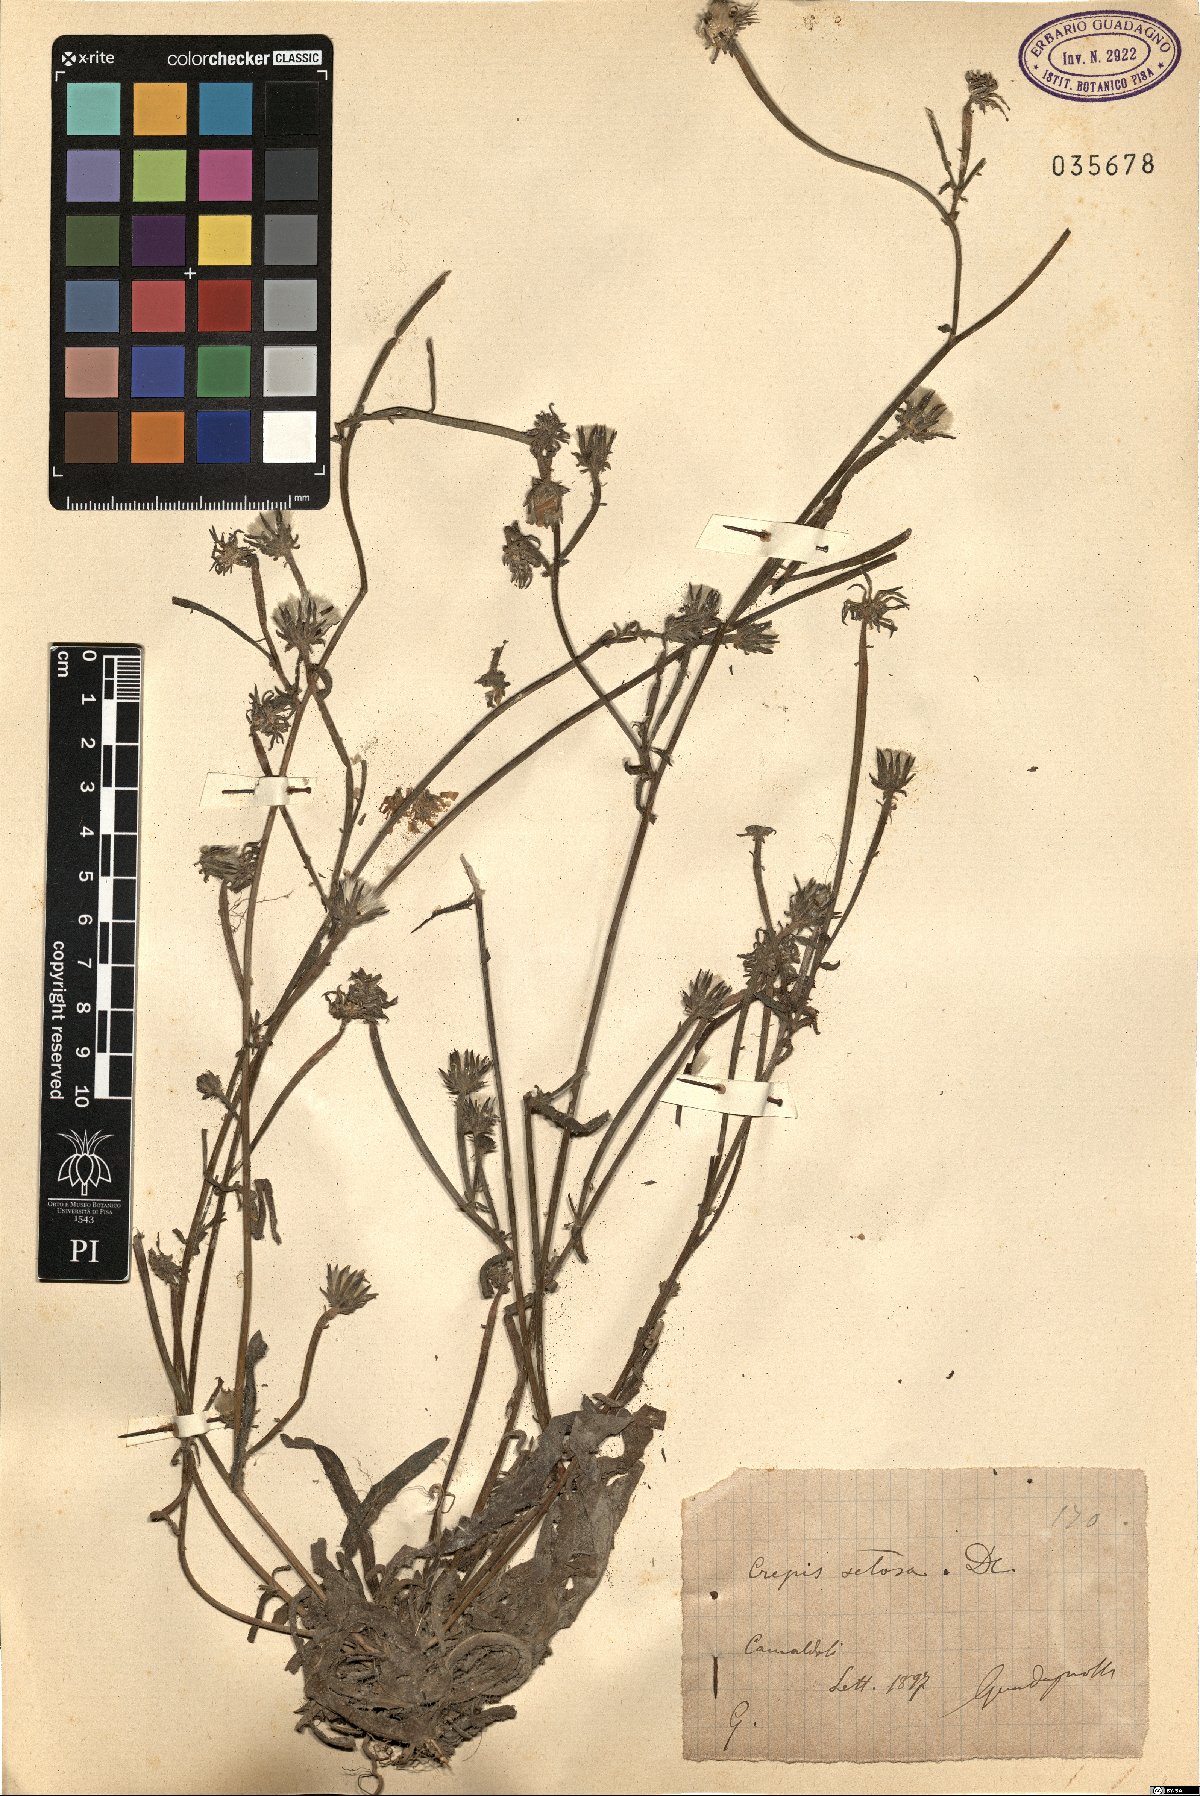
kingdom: Plantae
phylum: Tracheophyta
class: Magnoliopsida
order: Asterales
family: Asteraceae
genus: Crepis
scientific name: Crepis setosa
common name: Bristly hawk's-beard
